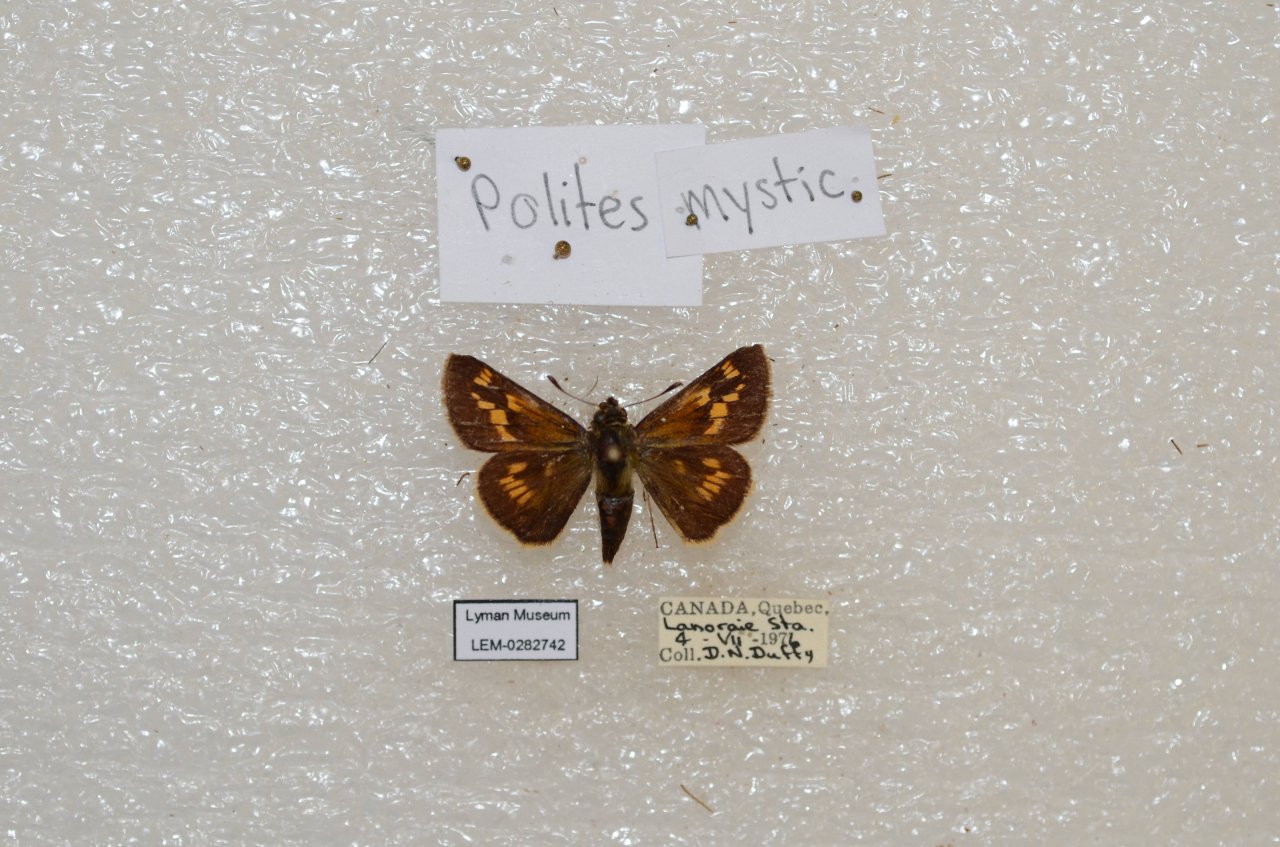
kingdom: Animalia
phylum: Arthropoda
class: Insecta
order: Lepidoptera
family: Hesperiidae
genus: Polites
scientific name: Polites
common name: Long Dash Skipper
